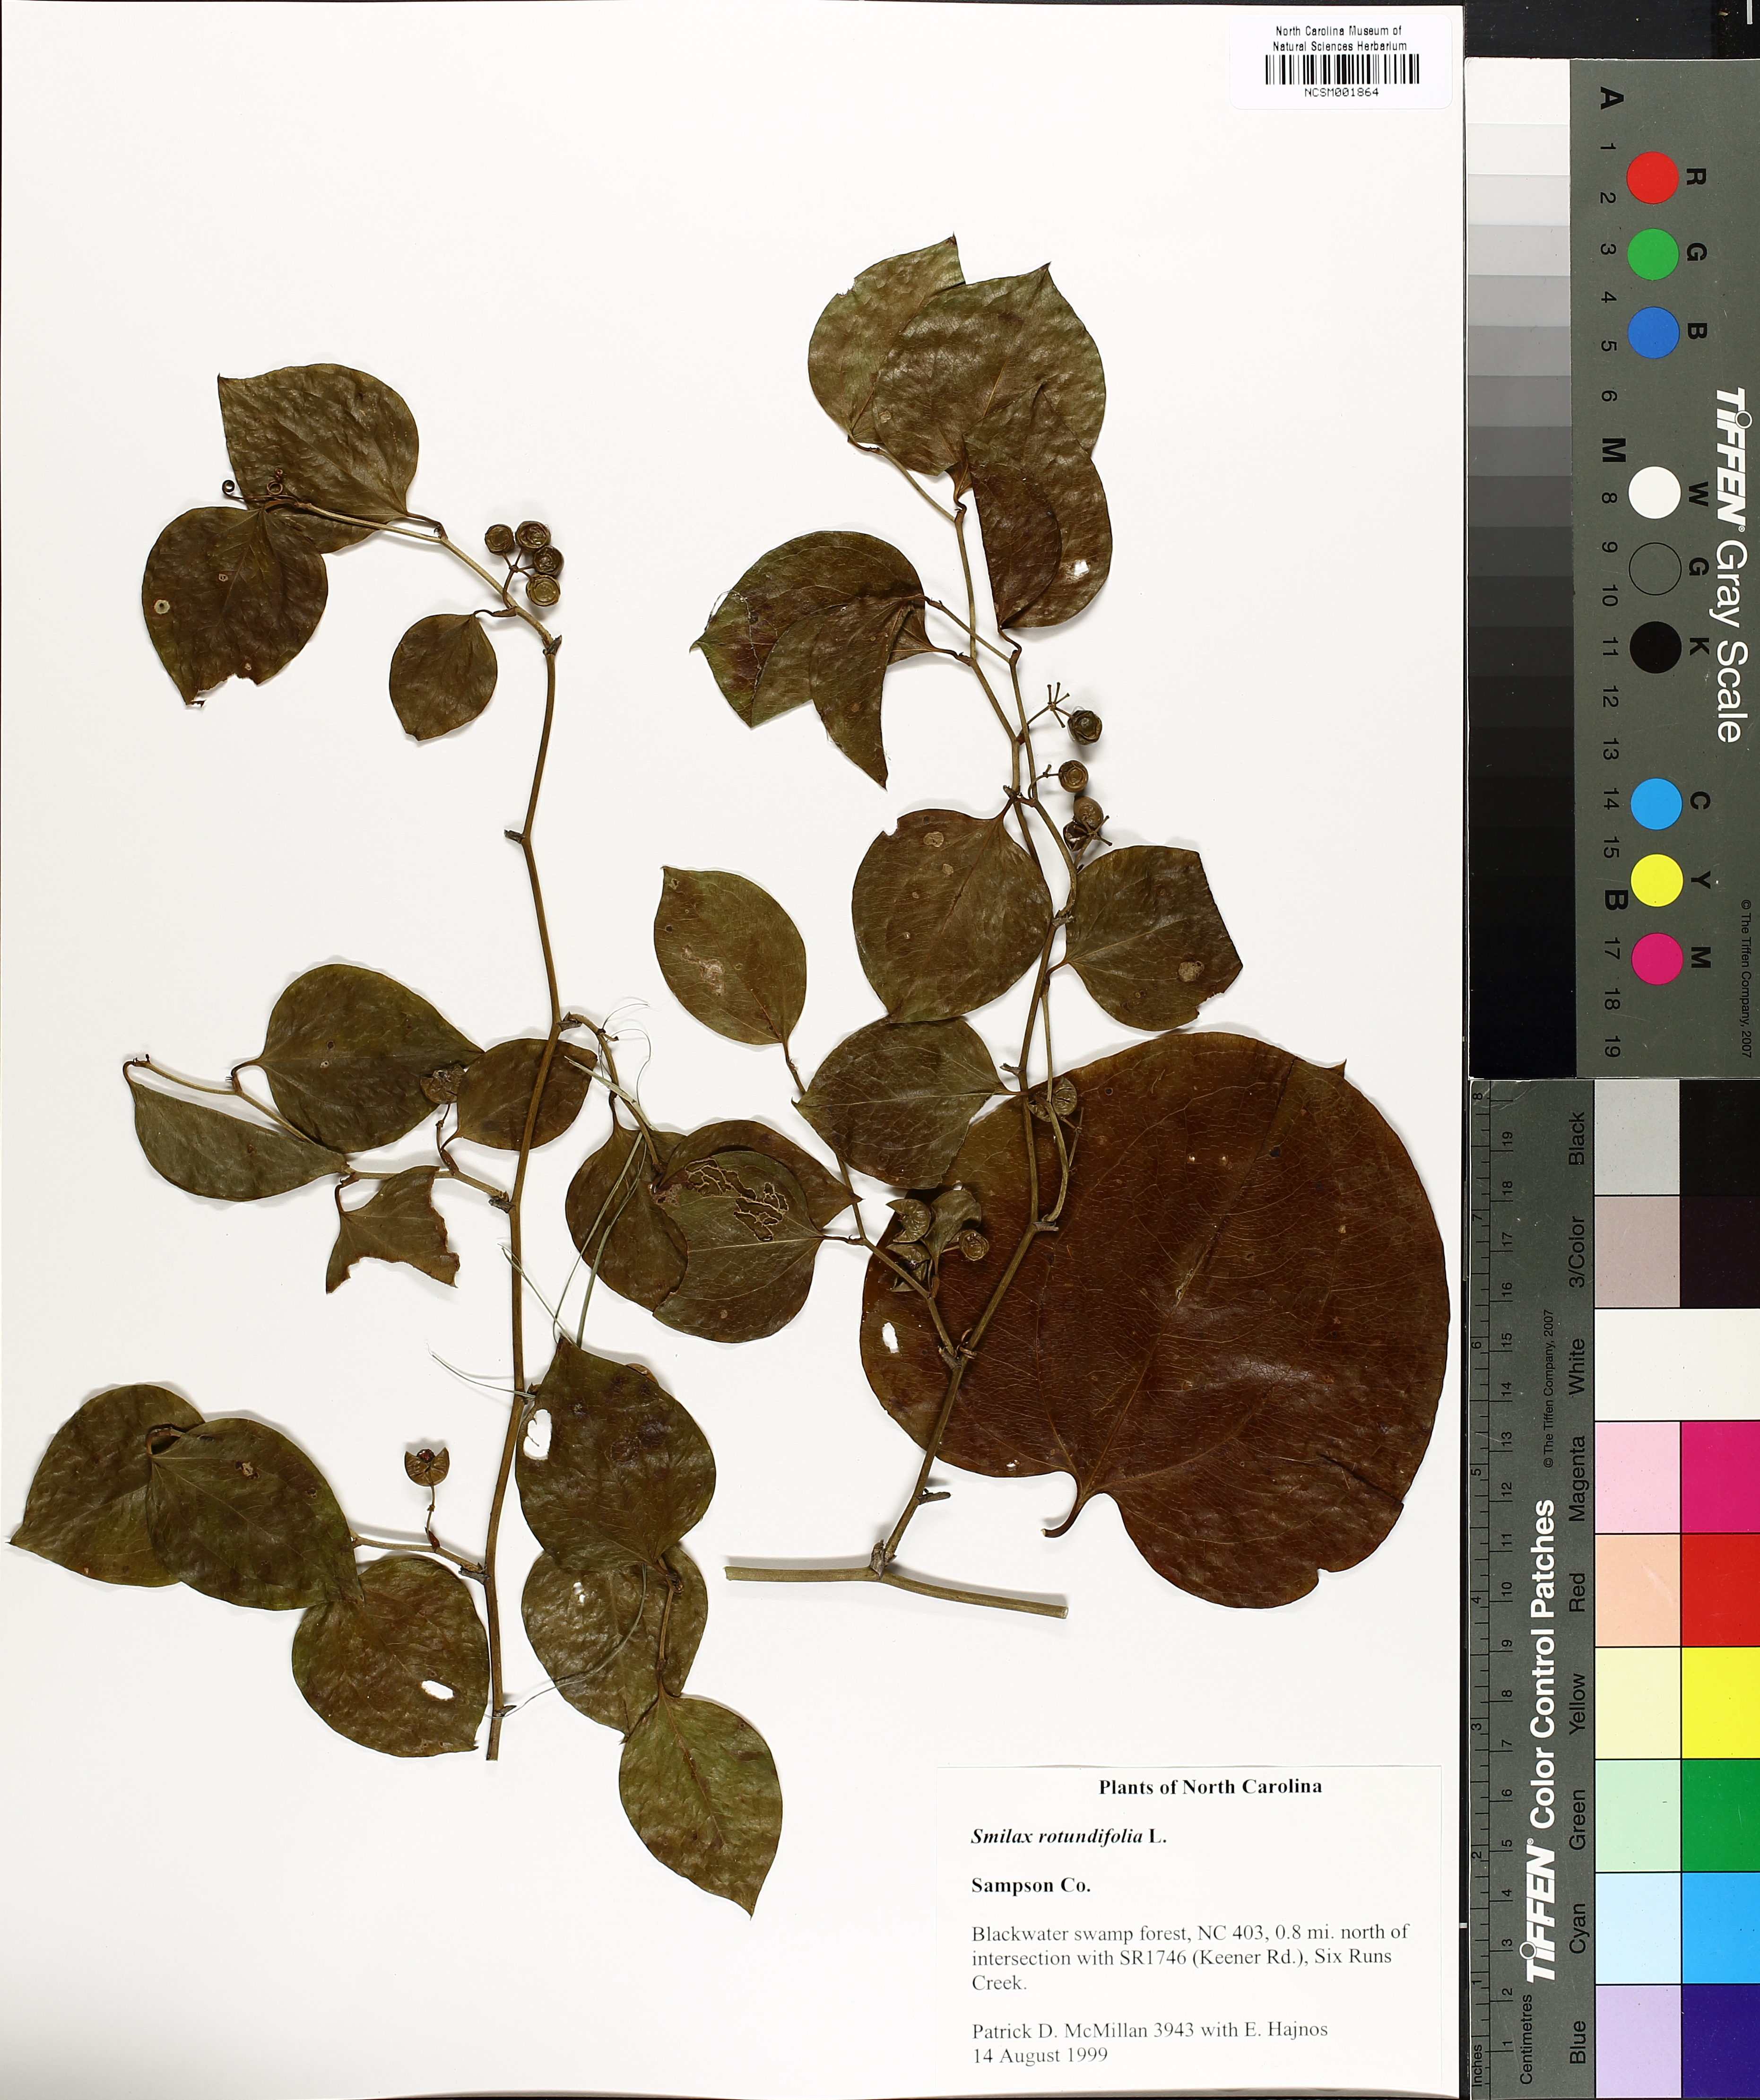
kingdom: Plantae
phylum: Tracheophyta
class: Liliopsida
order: Liliales
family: Smilacaceae
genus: Smilax
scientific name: Smilax rotundifolia
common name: Bullbriar
